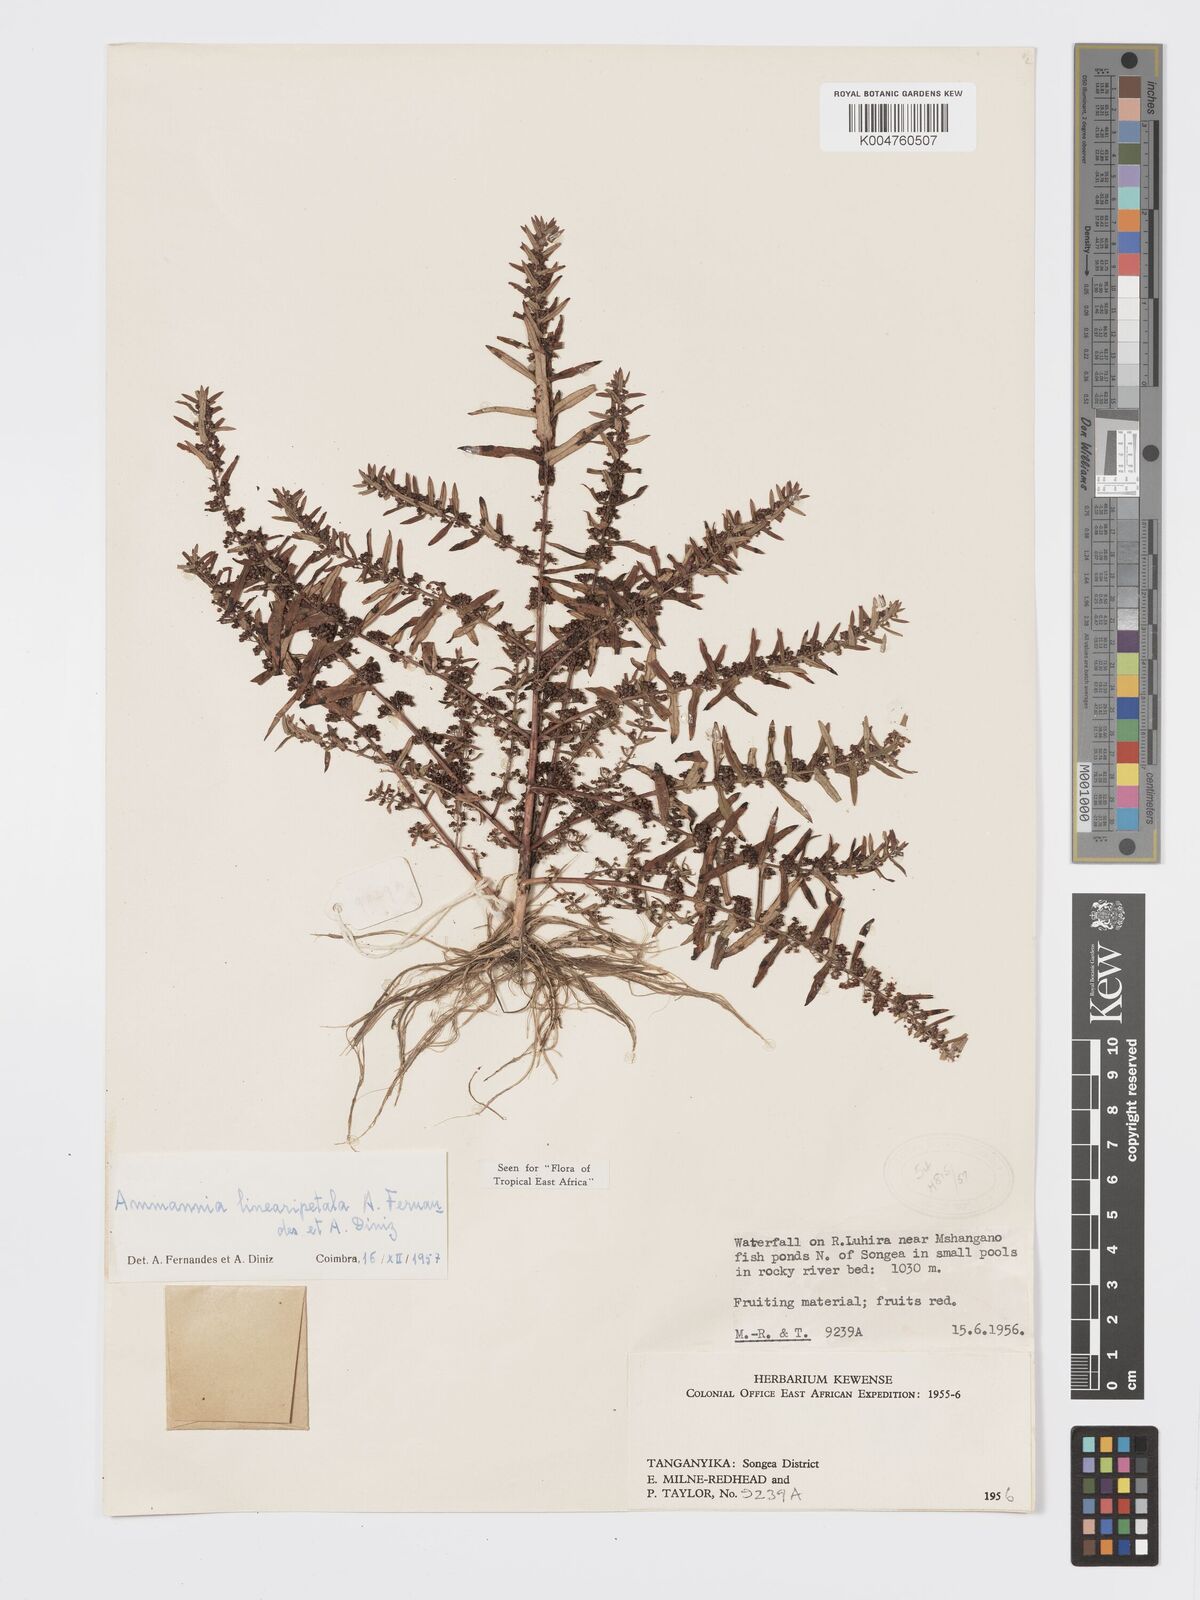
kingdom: Plantae
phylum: Tracheophyta
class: Magnoliopsida
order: Myrtales
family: Lythraceae
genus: Ammannia
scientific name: Ammannia linearipetala
